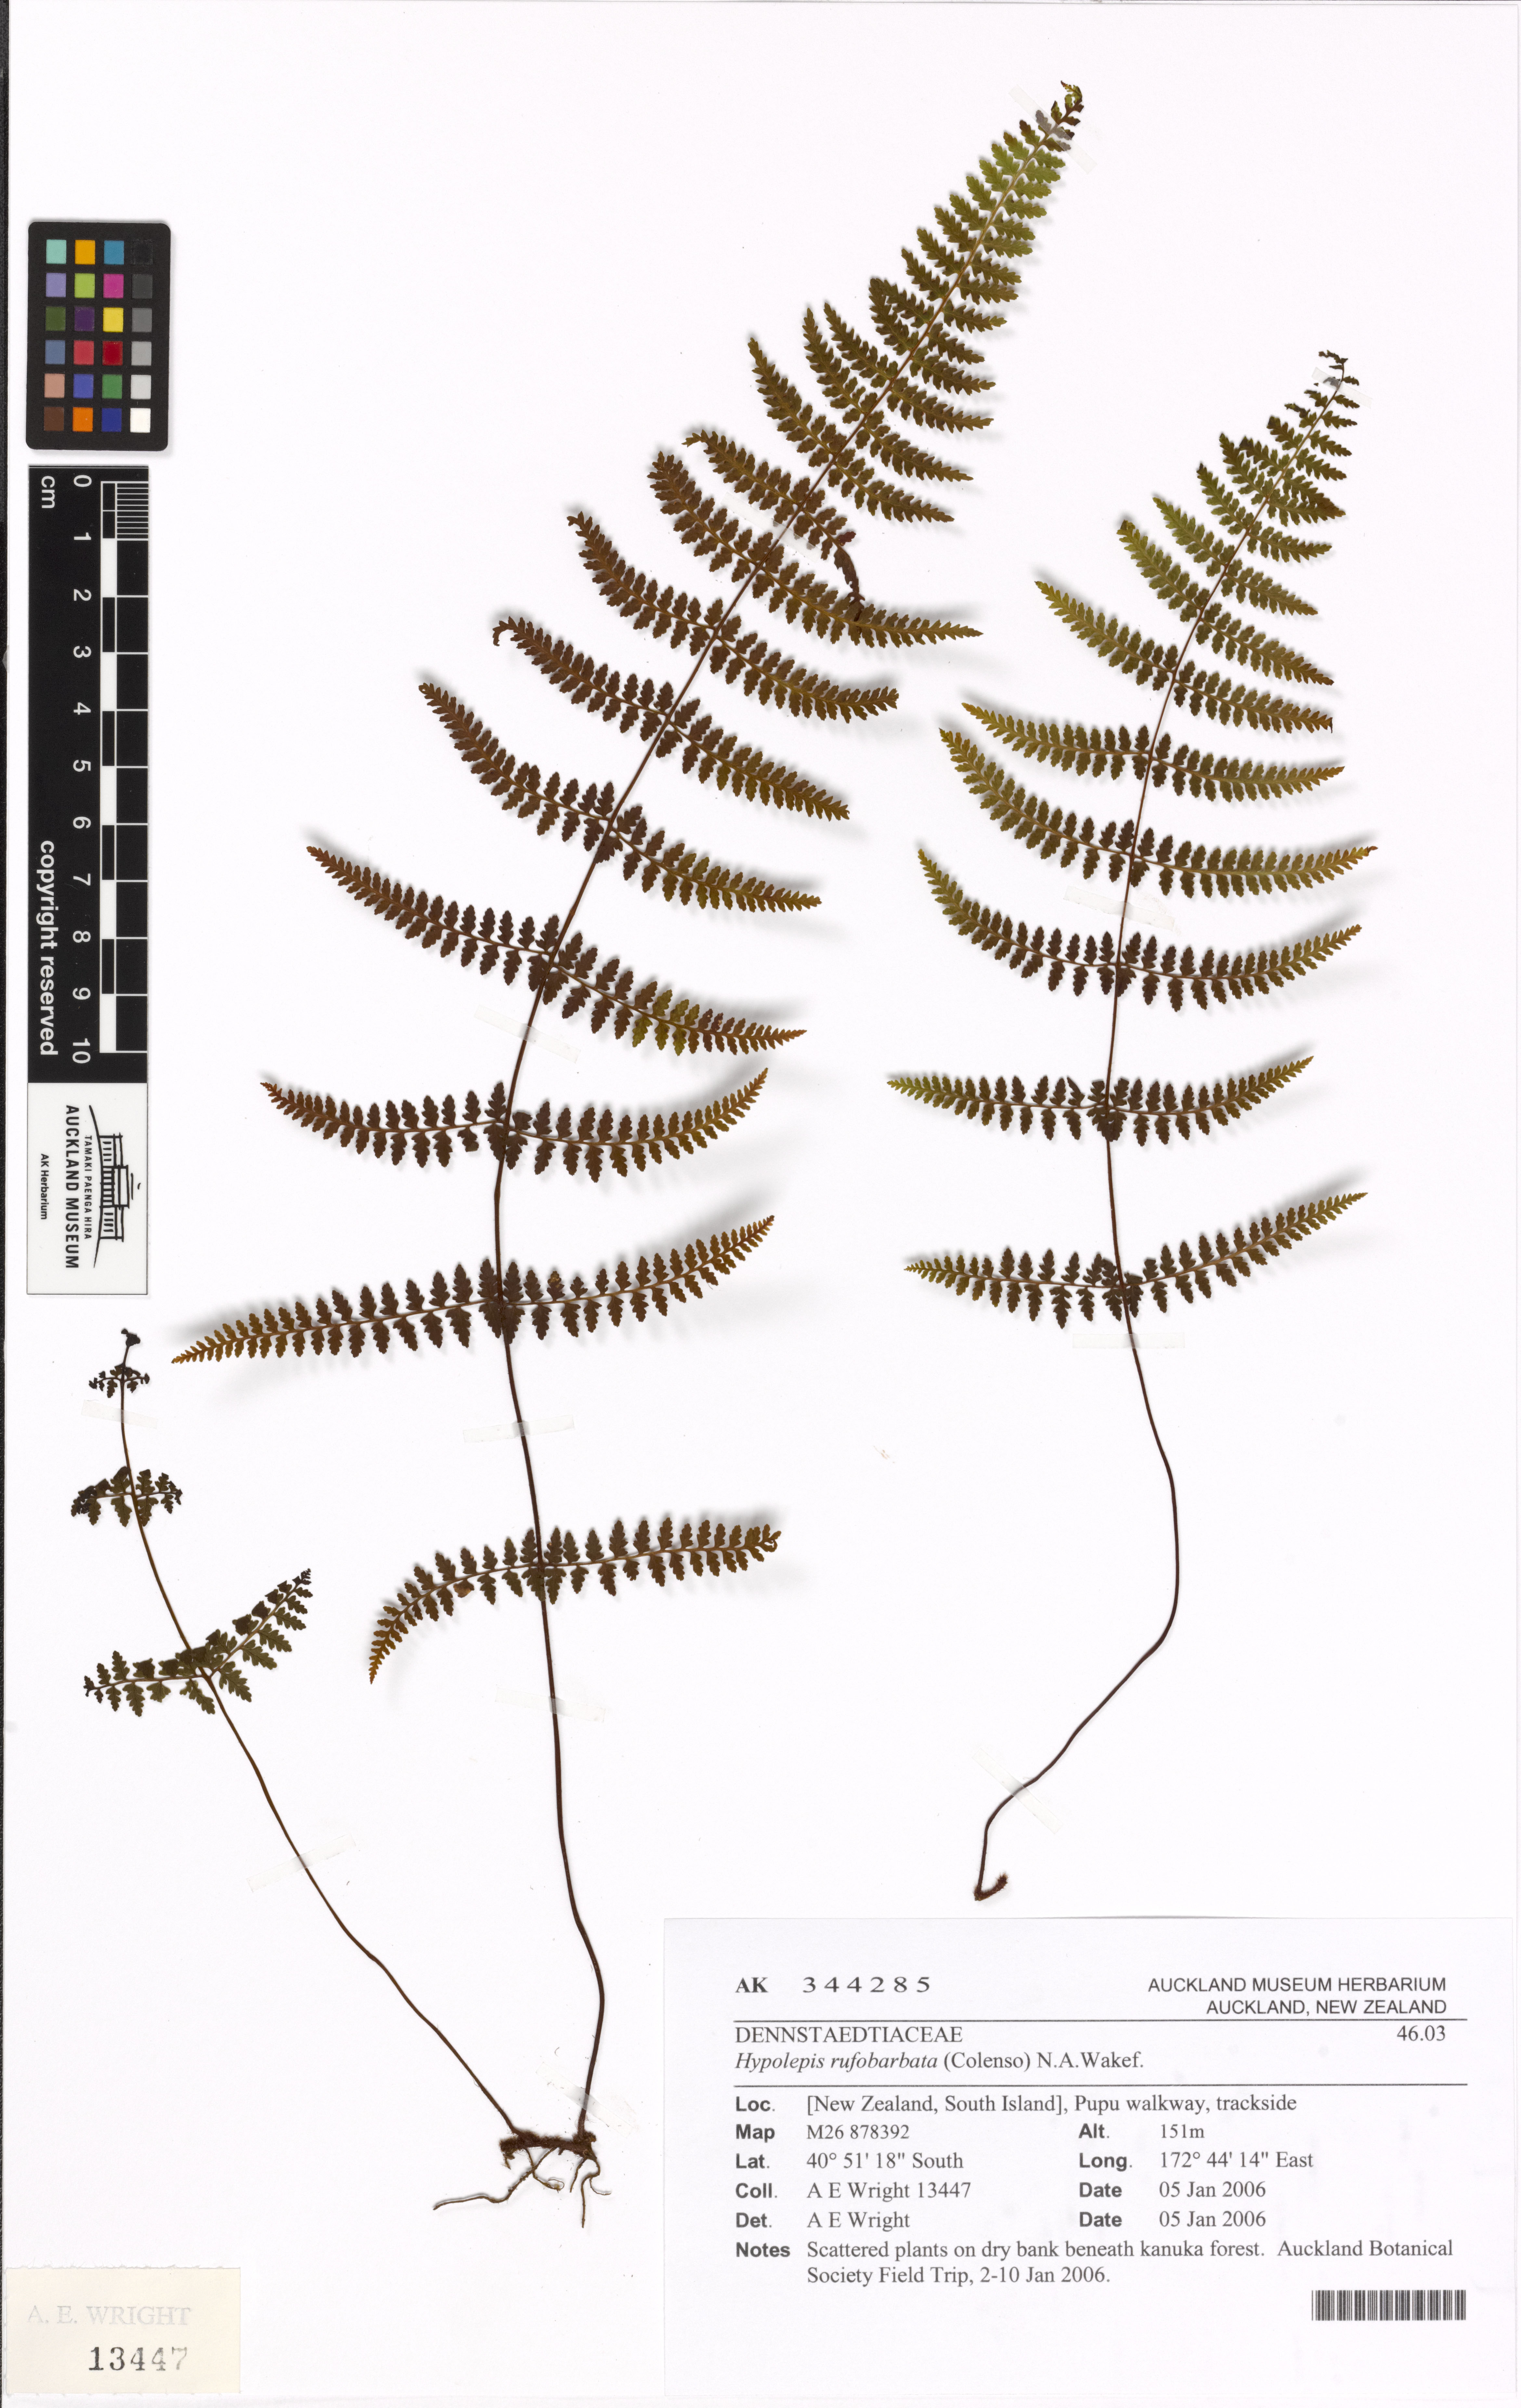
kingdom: Plantae
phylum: Tracheophyta
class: Polypodiopsida
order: Polypodiales
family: Dennstaedtiaceae
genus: Hiya
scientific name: Hiya distans
